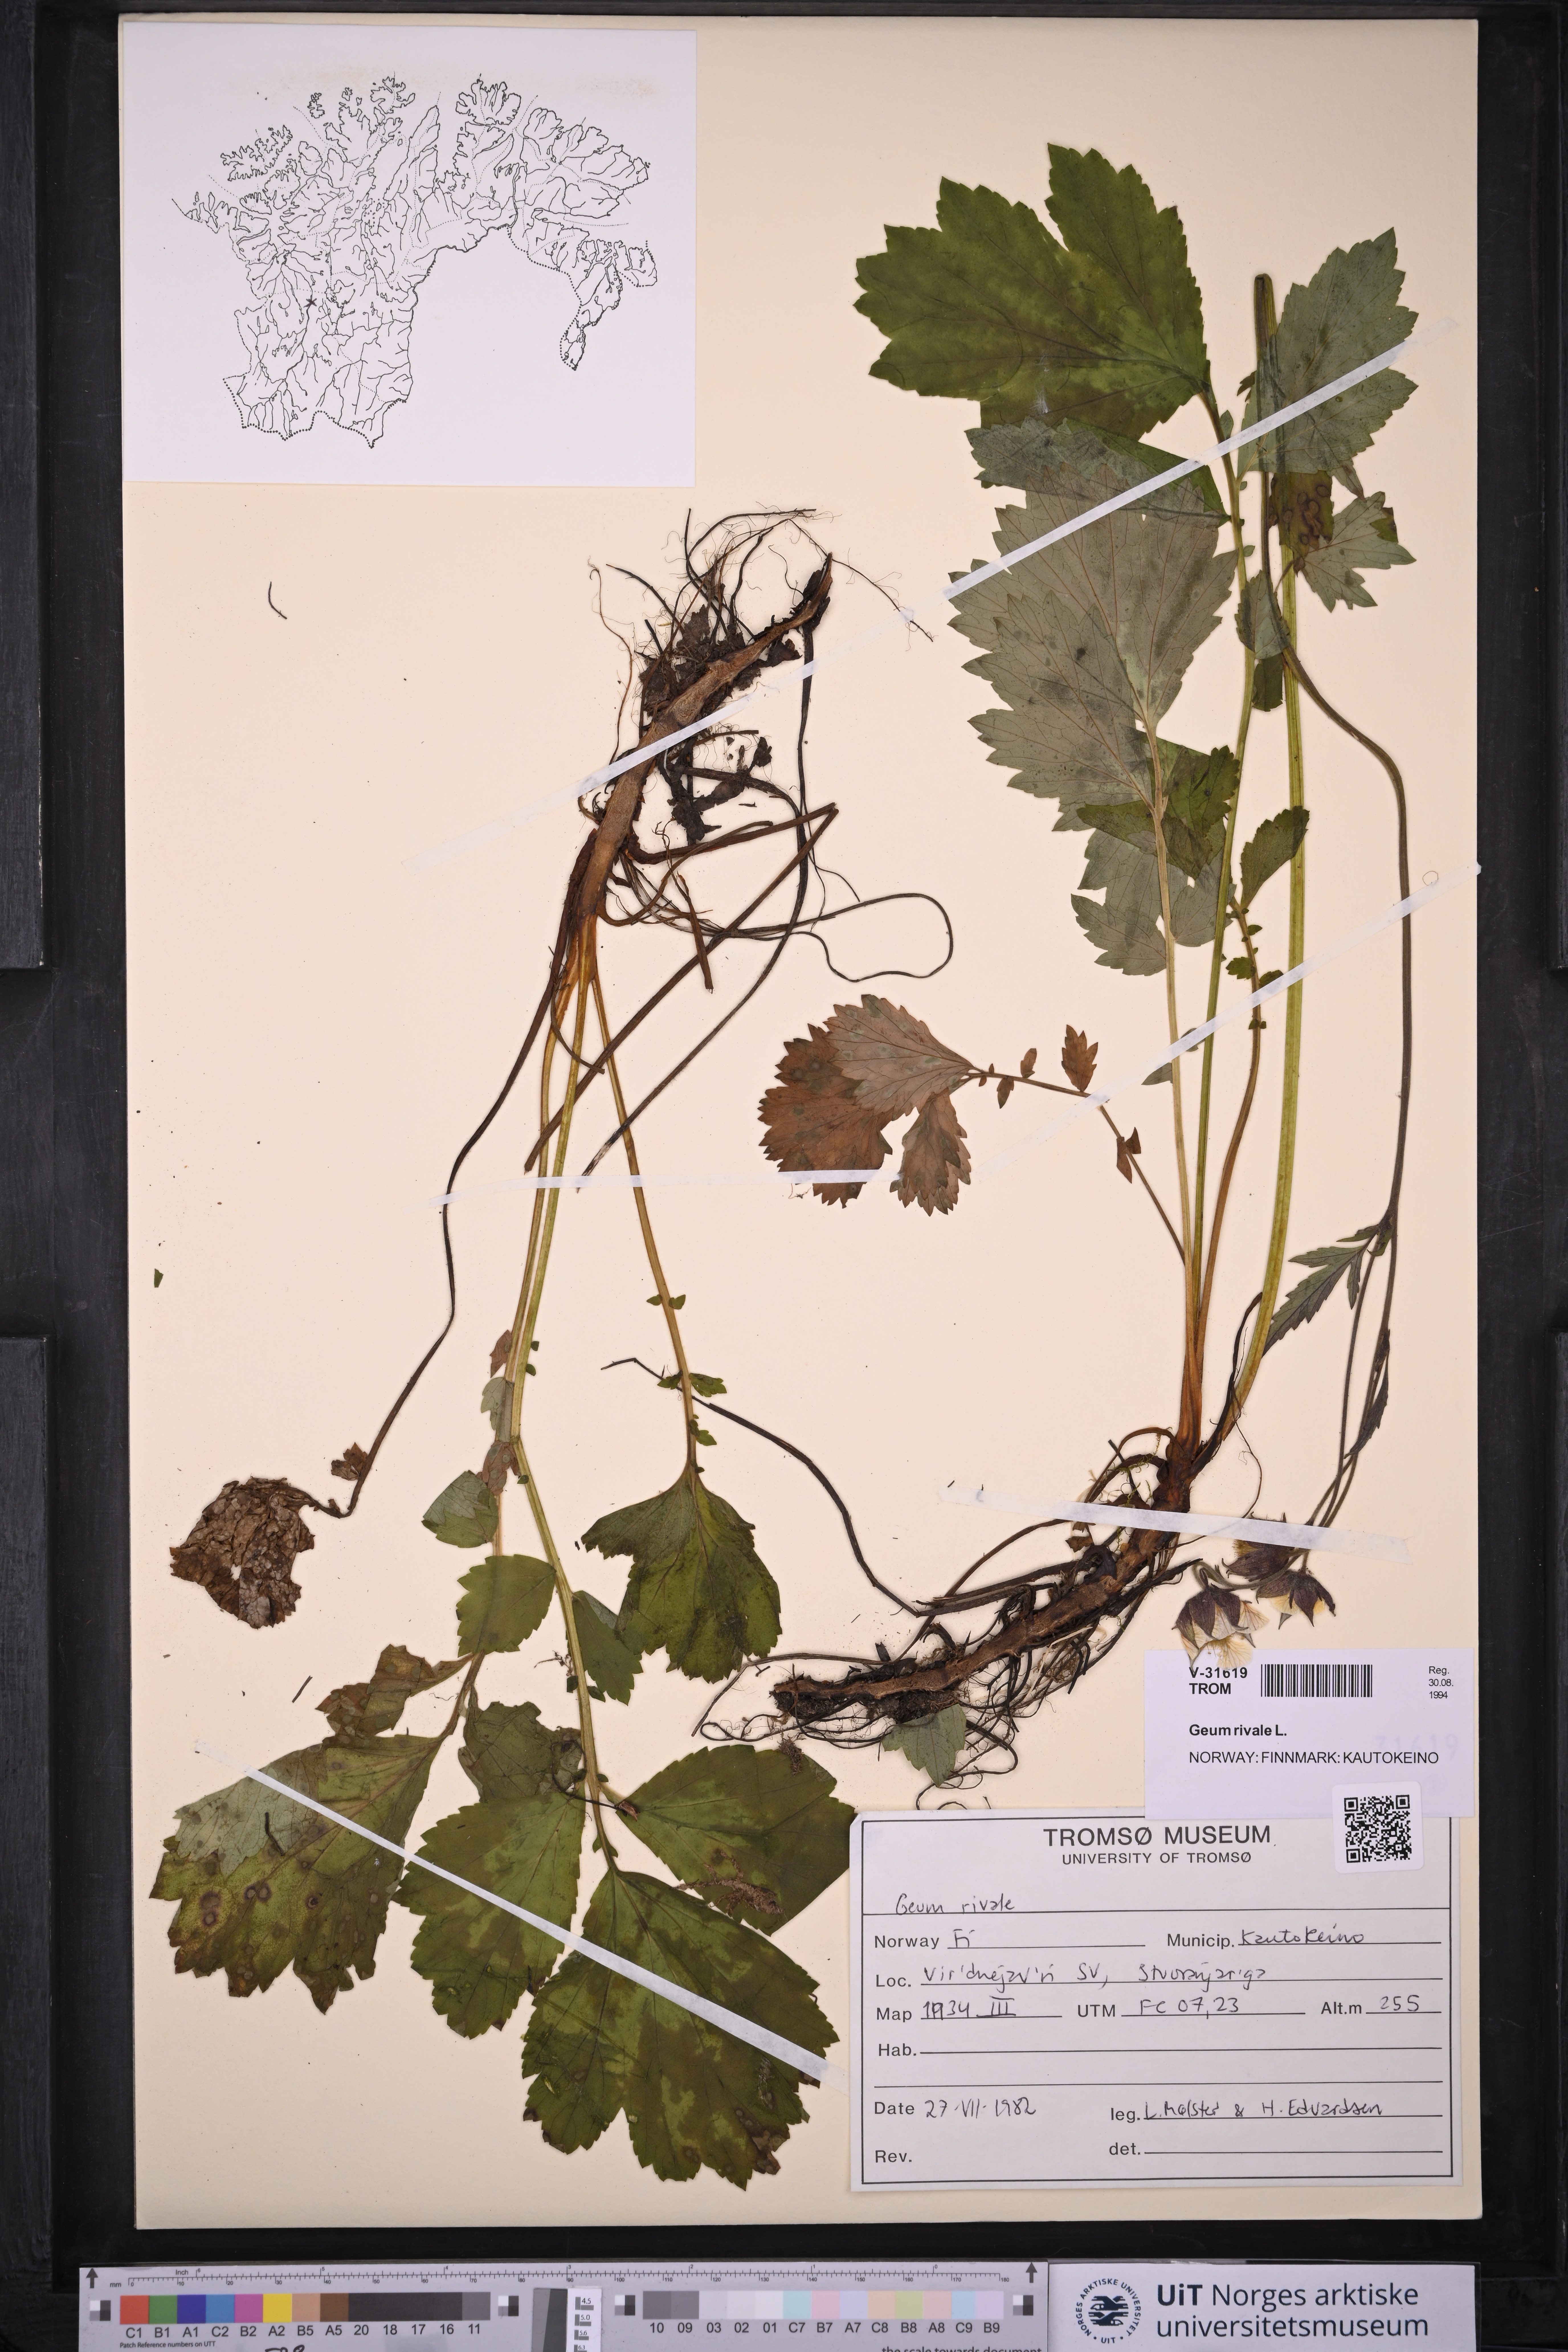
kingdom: Plantae
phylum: Tracheophyta
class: Magnoliopsida
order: Rosales
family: Rosaceae
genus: Geum
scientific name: Geum rivale
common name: Water avens
